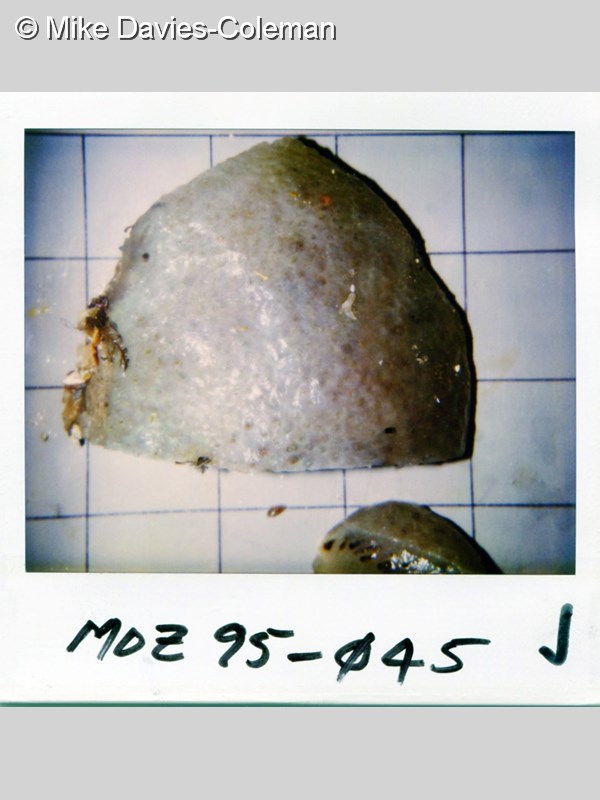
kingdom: Animalia
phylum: Chordata
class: Ascidiacea
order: Aplousobranchia
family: Polycitoridae
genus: Polycitor
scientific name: Polycitor africanus
